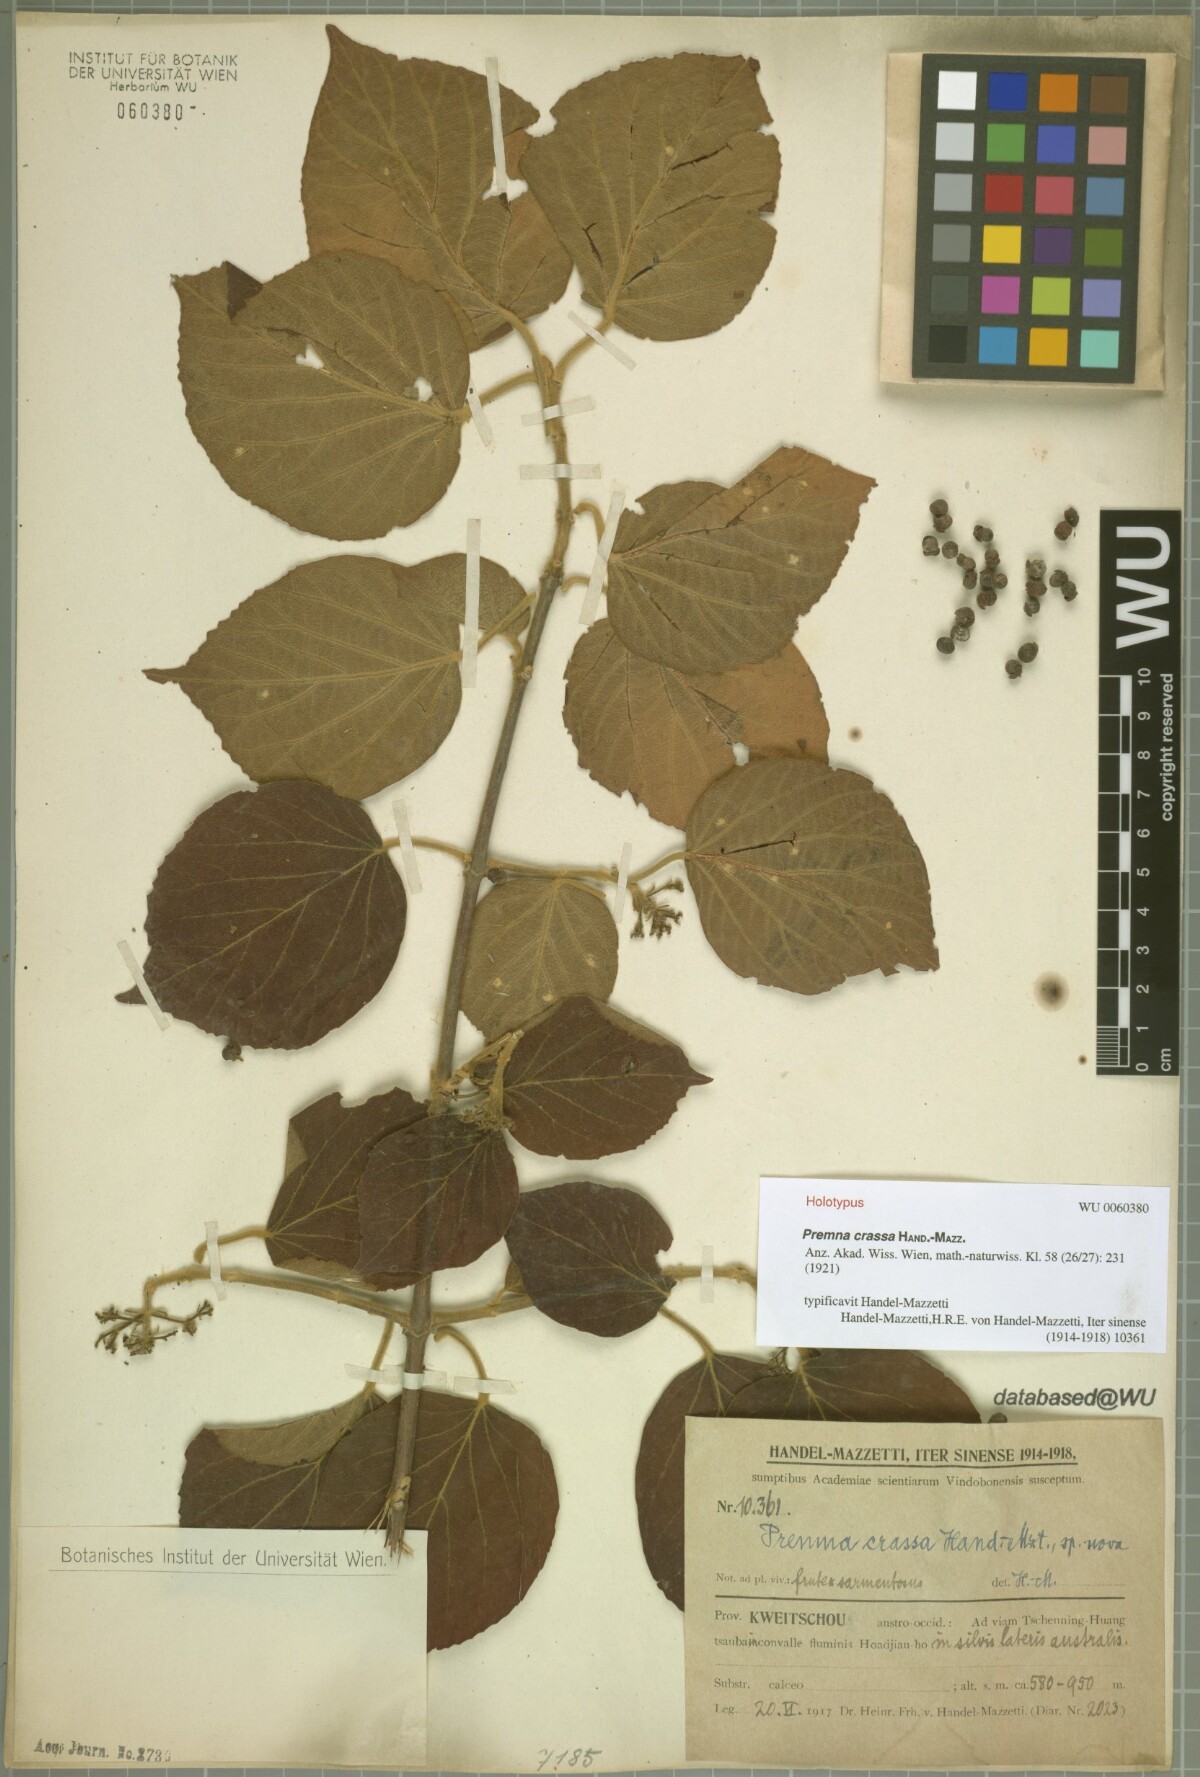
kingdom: Plantae
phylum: Tracheophyta
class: Magnoliopsida
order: Lamiales
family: Lamiaceae
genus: Premna
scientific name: Premna fulva
